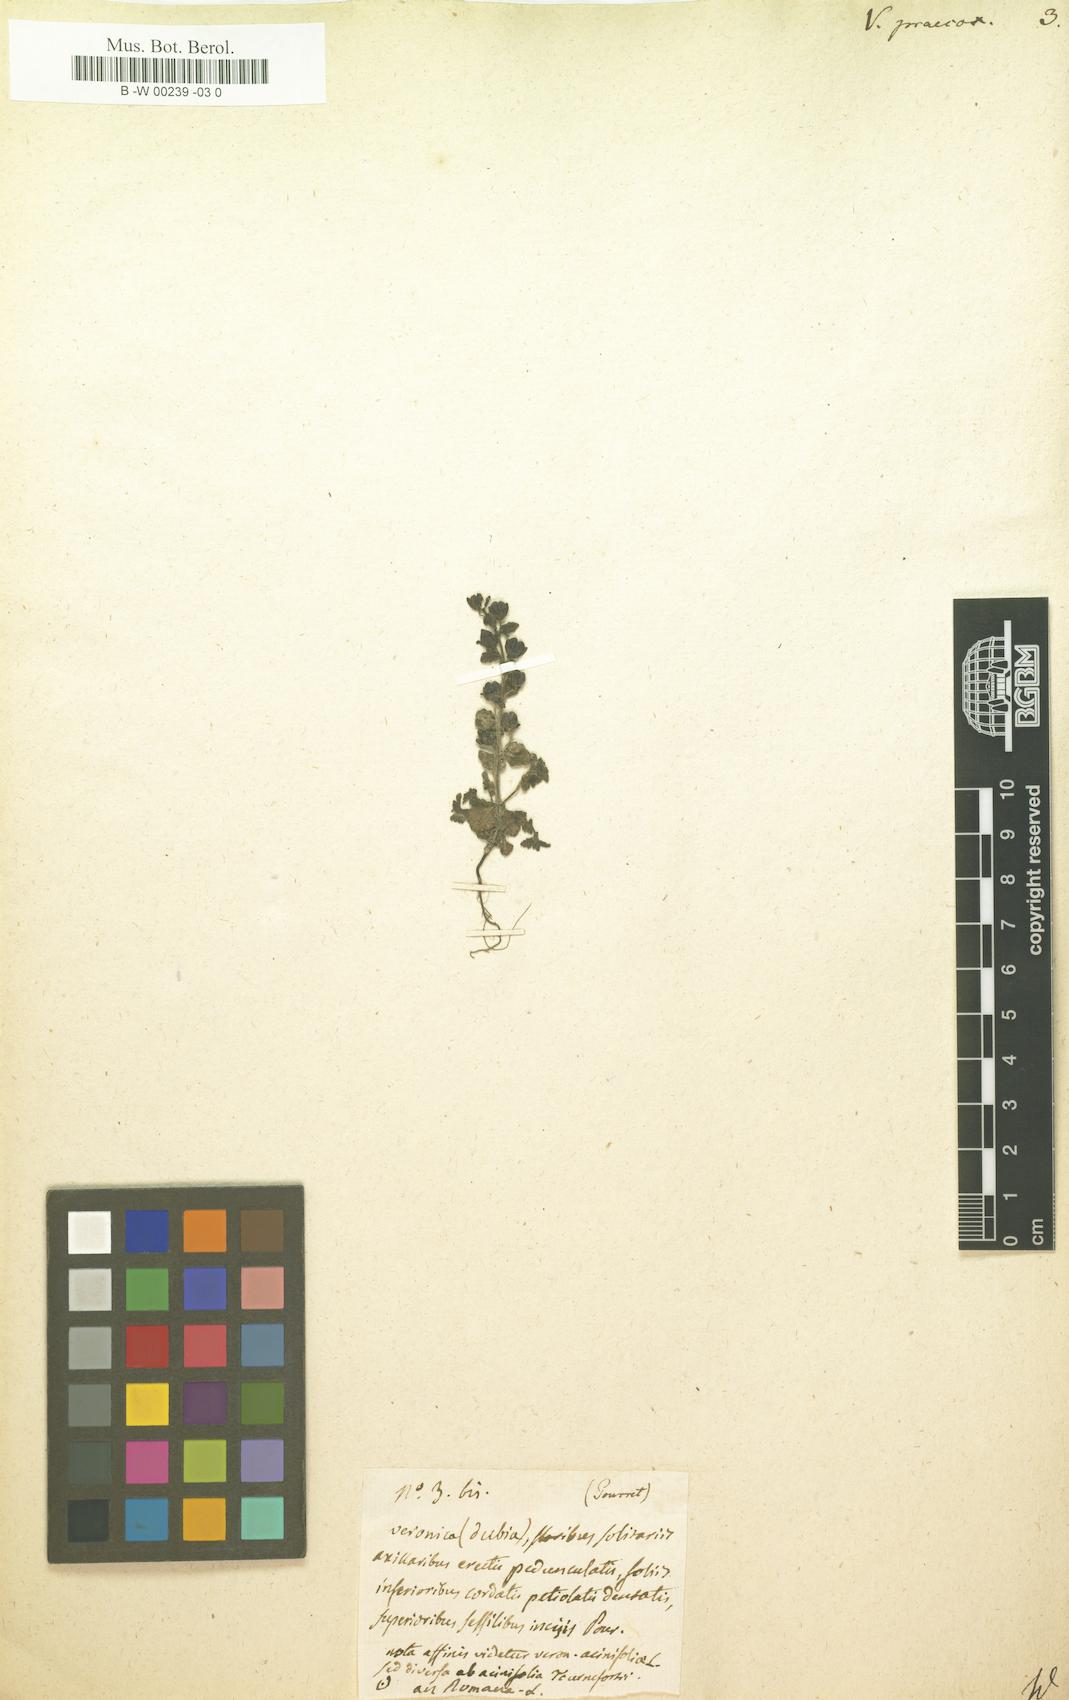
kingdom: Plantae
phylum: Tracheophyta
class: Magnoliopsida
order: Lamiales
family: Plantaginaceae
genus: Veronica
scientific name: Veronica praecox
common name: Breckland speedwell
